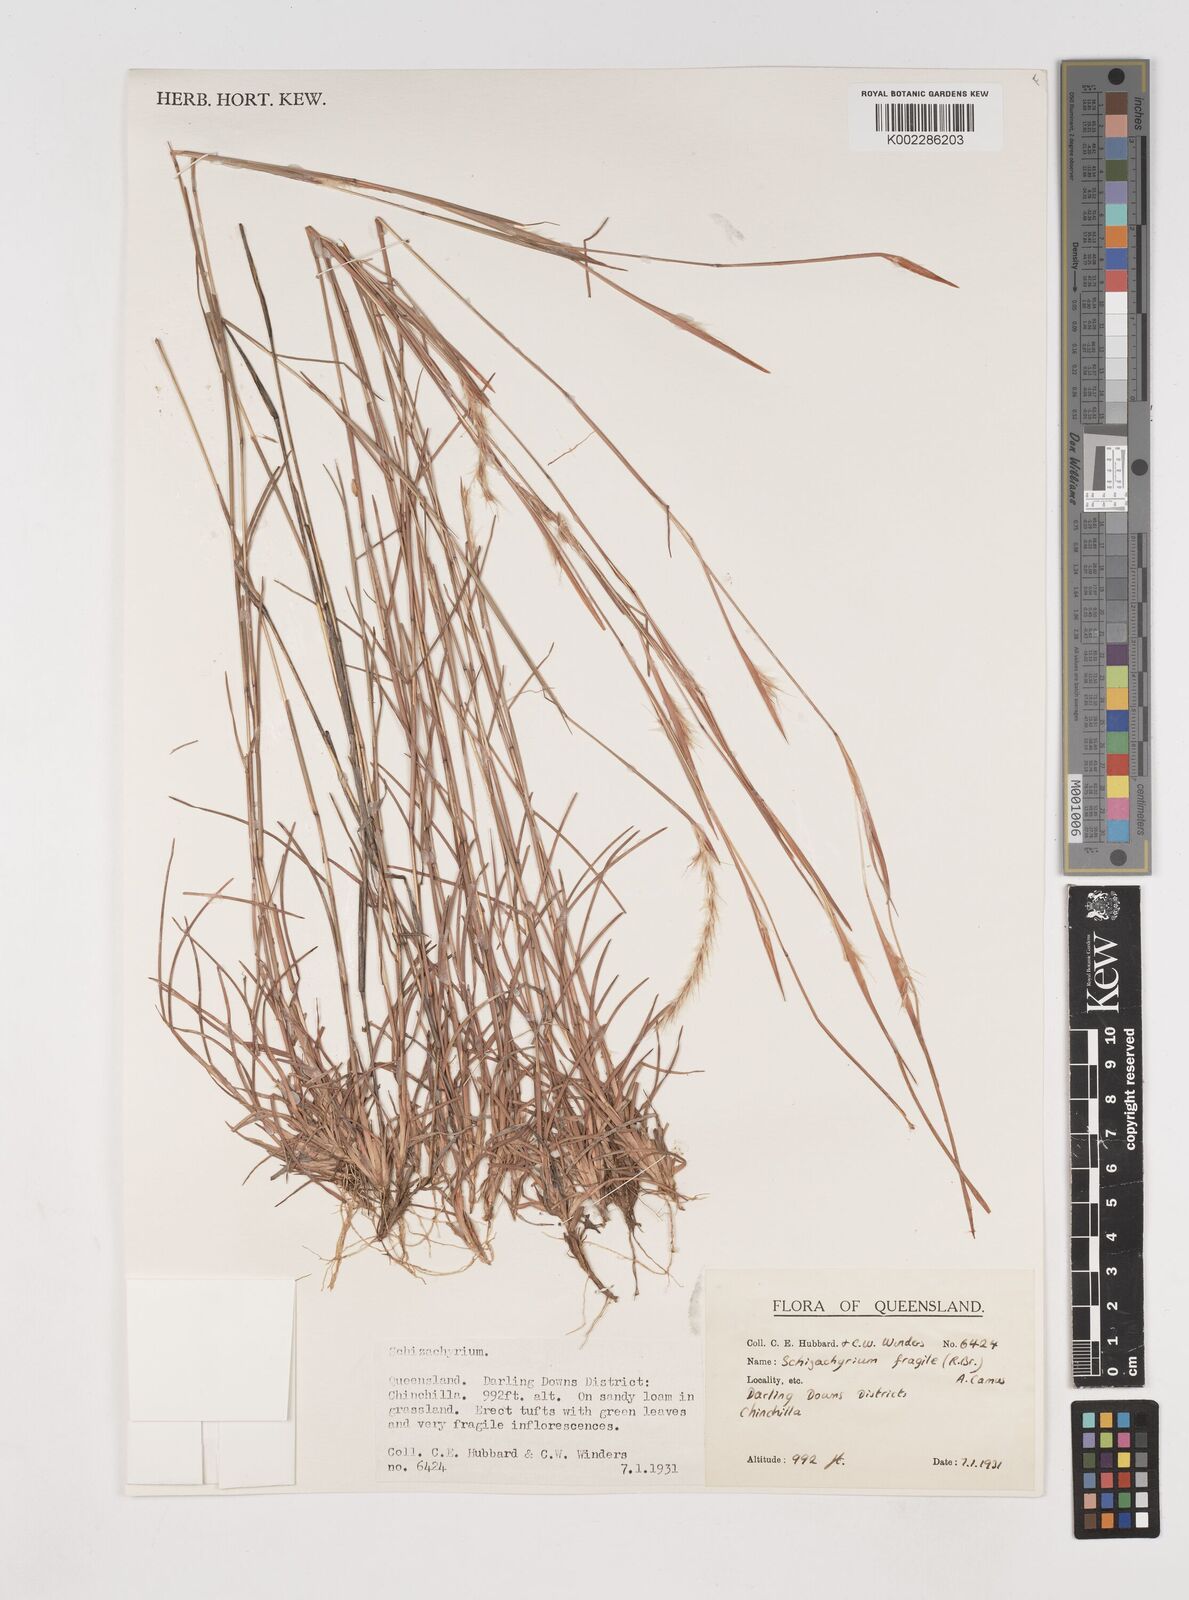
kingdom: Plantae
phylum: Tracheophyta
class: Liliopsida
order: Poales
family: Poaceae
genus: Schizachyrium
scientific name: Schizachyrium fragile
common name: Red spathe grass
